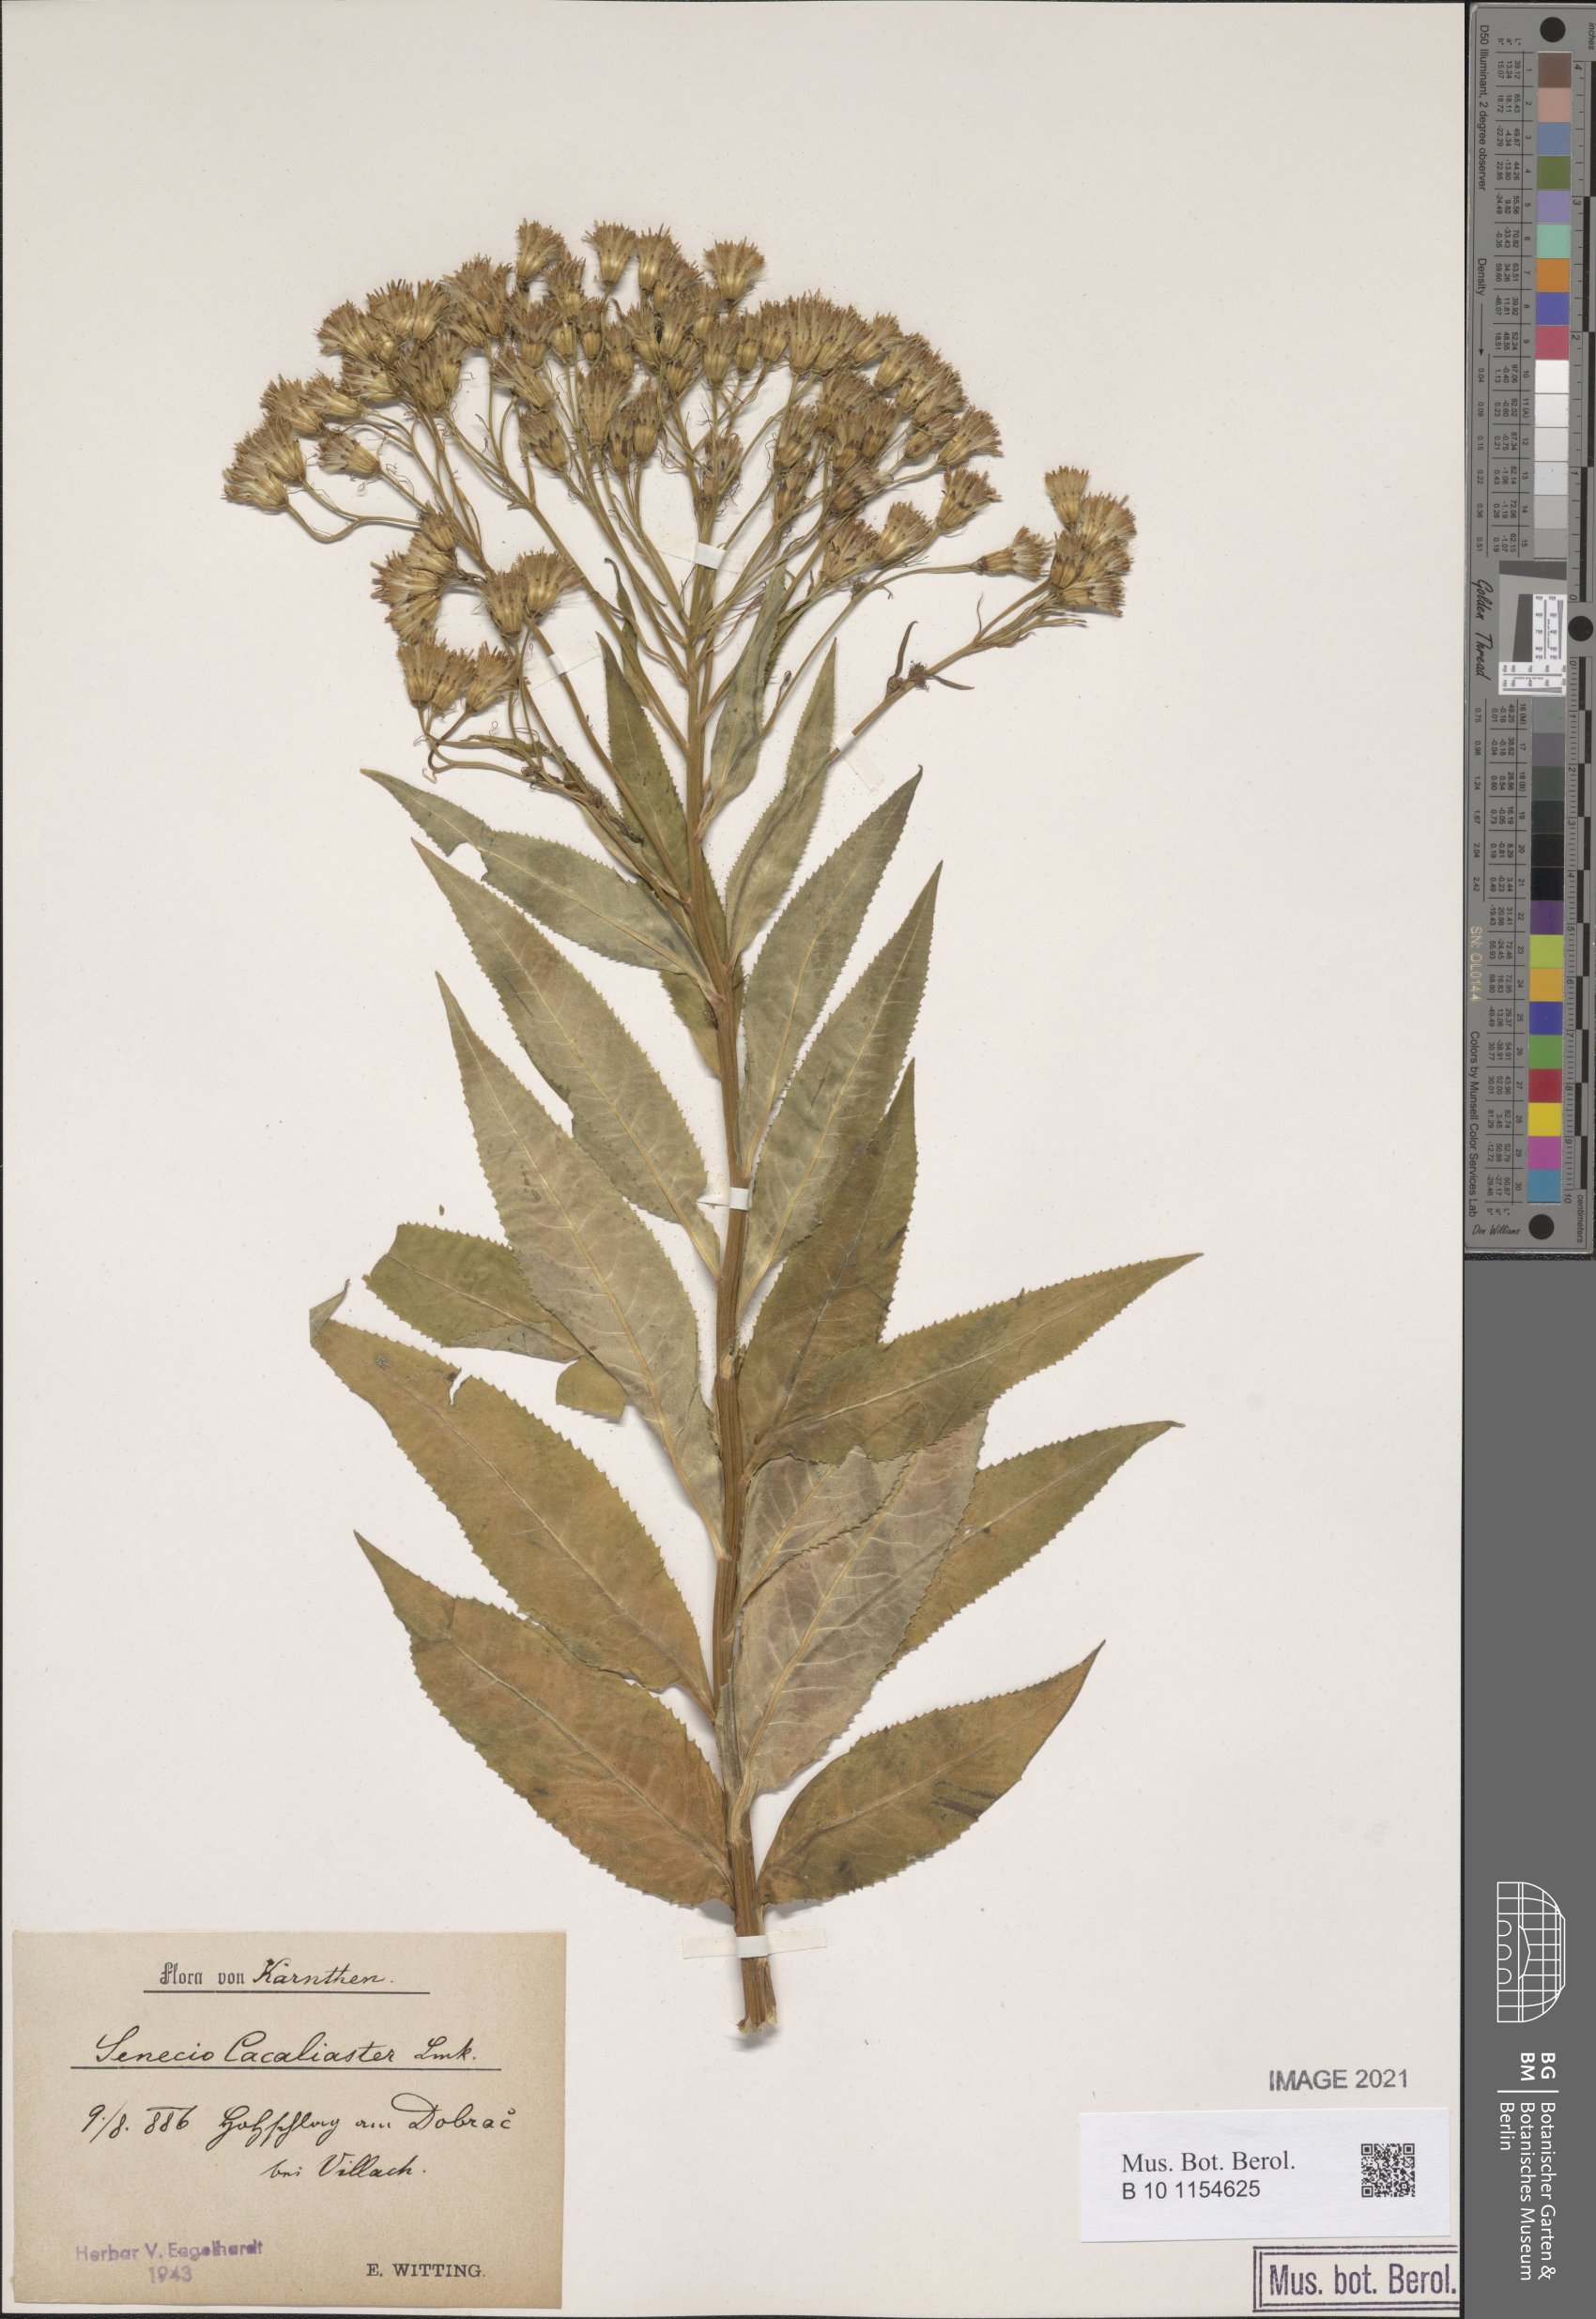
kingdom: Plantae
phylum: Tracheophyta
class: Magnoliopsida
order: Asterales
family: Asteraceae
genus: Senecio
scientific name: Senecio cacaliaster
